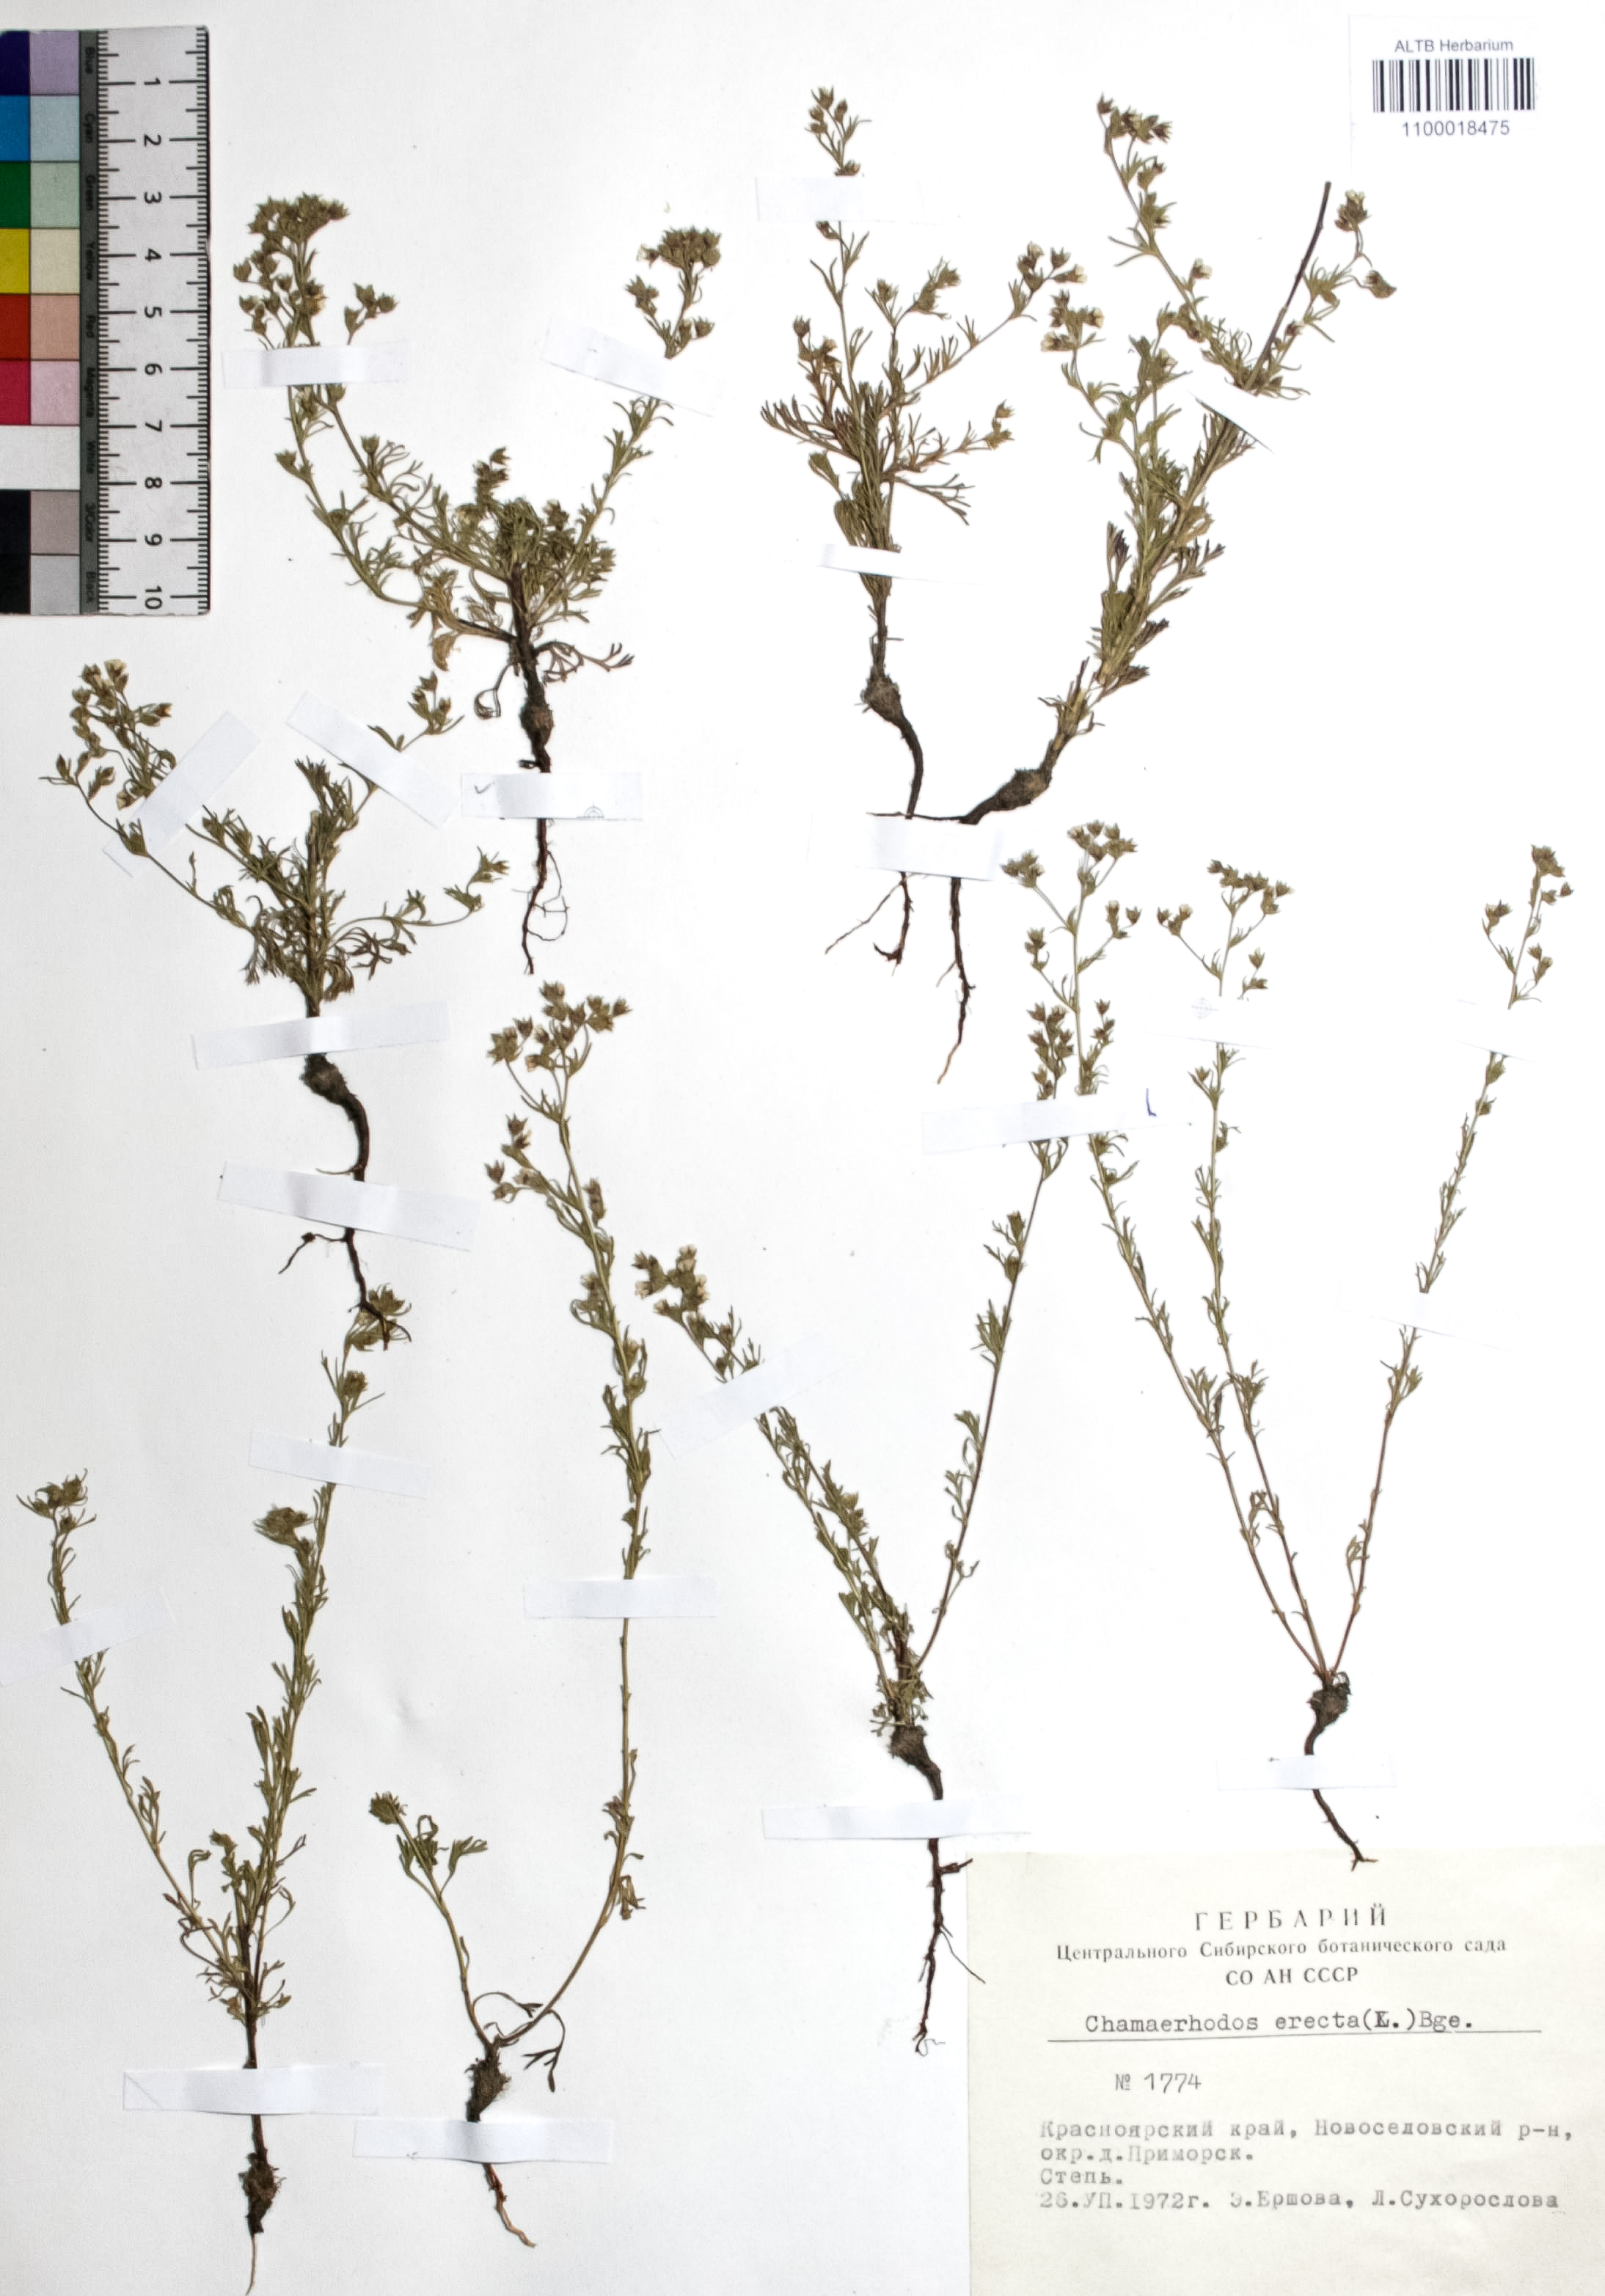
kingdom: Plantae
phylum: Tracheophyta
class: Magnoliopsida
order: Rosales
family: Rosaceae
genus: Chamaerhodos
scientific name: Chamaerhodos erecta
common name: American chamaerhodos
